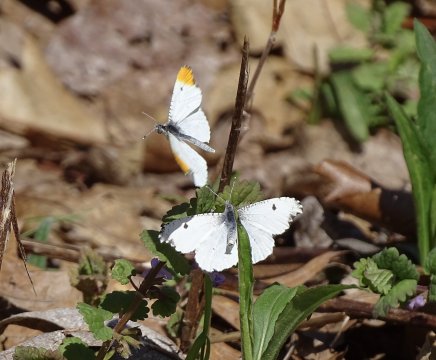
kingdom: Animalia
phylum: Arthropoda
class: Insecta
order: Lepidoptera
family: Pieridae
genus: Anthocharis
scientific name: Anthocharis midea
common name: Falcate Orangetip
